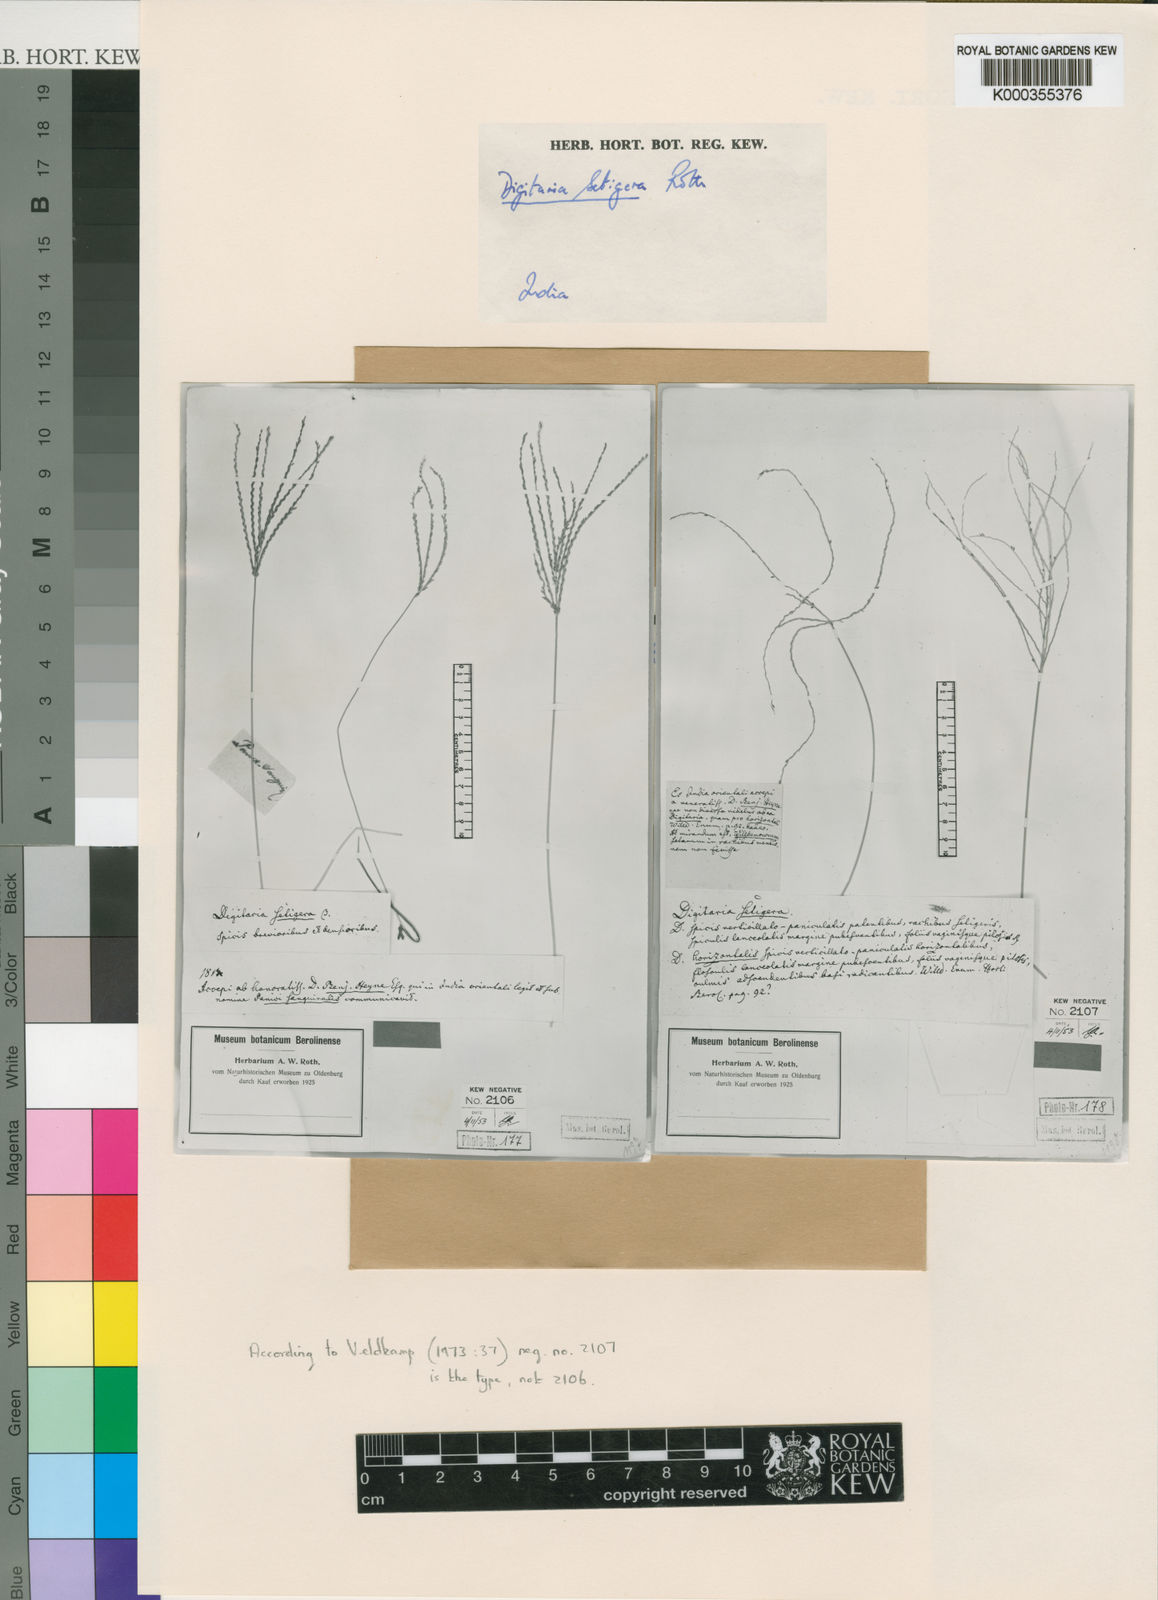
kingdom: Plantae
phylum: Tracheophyta
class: Liliopsida
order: Poales
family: Poaceae
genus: Digitaria
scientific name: Digitaria
